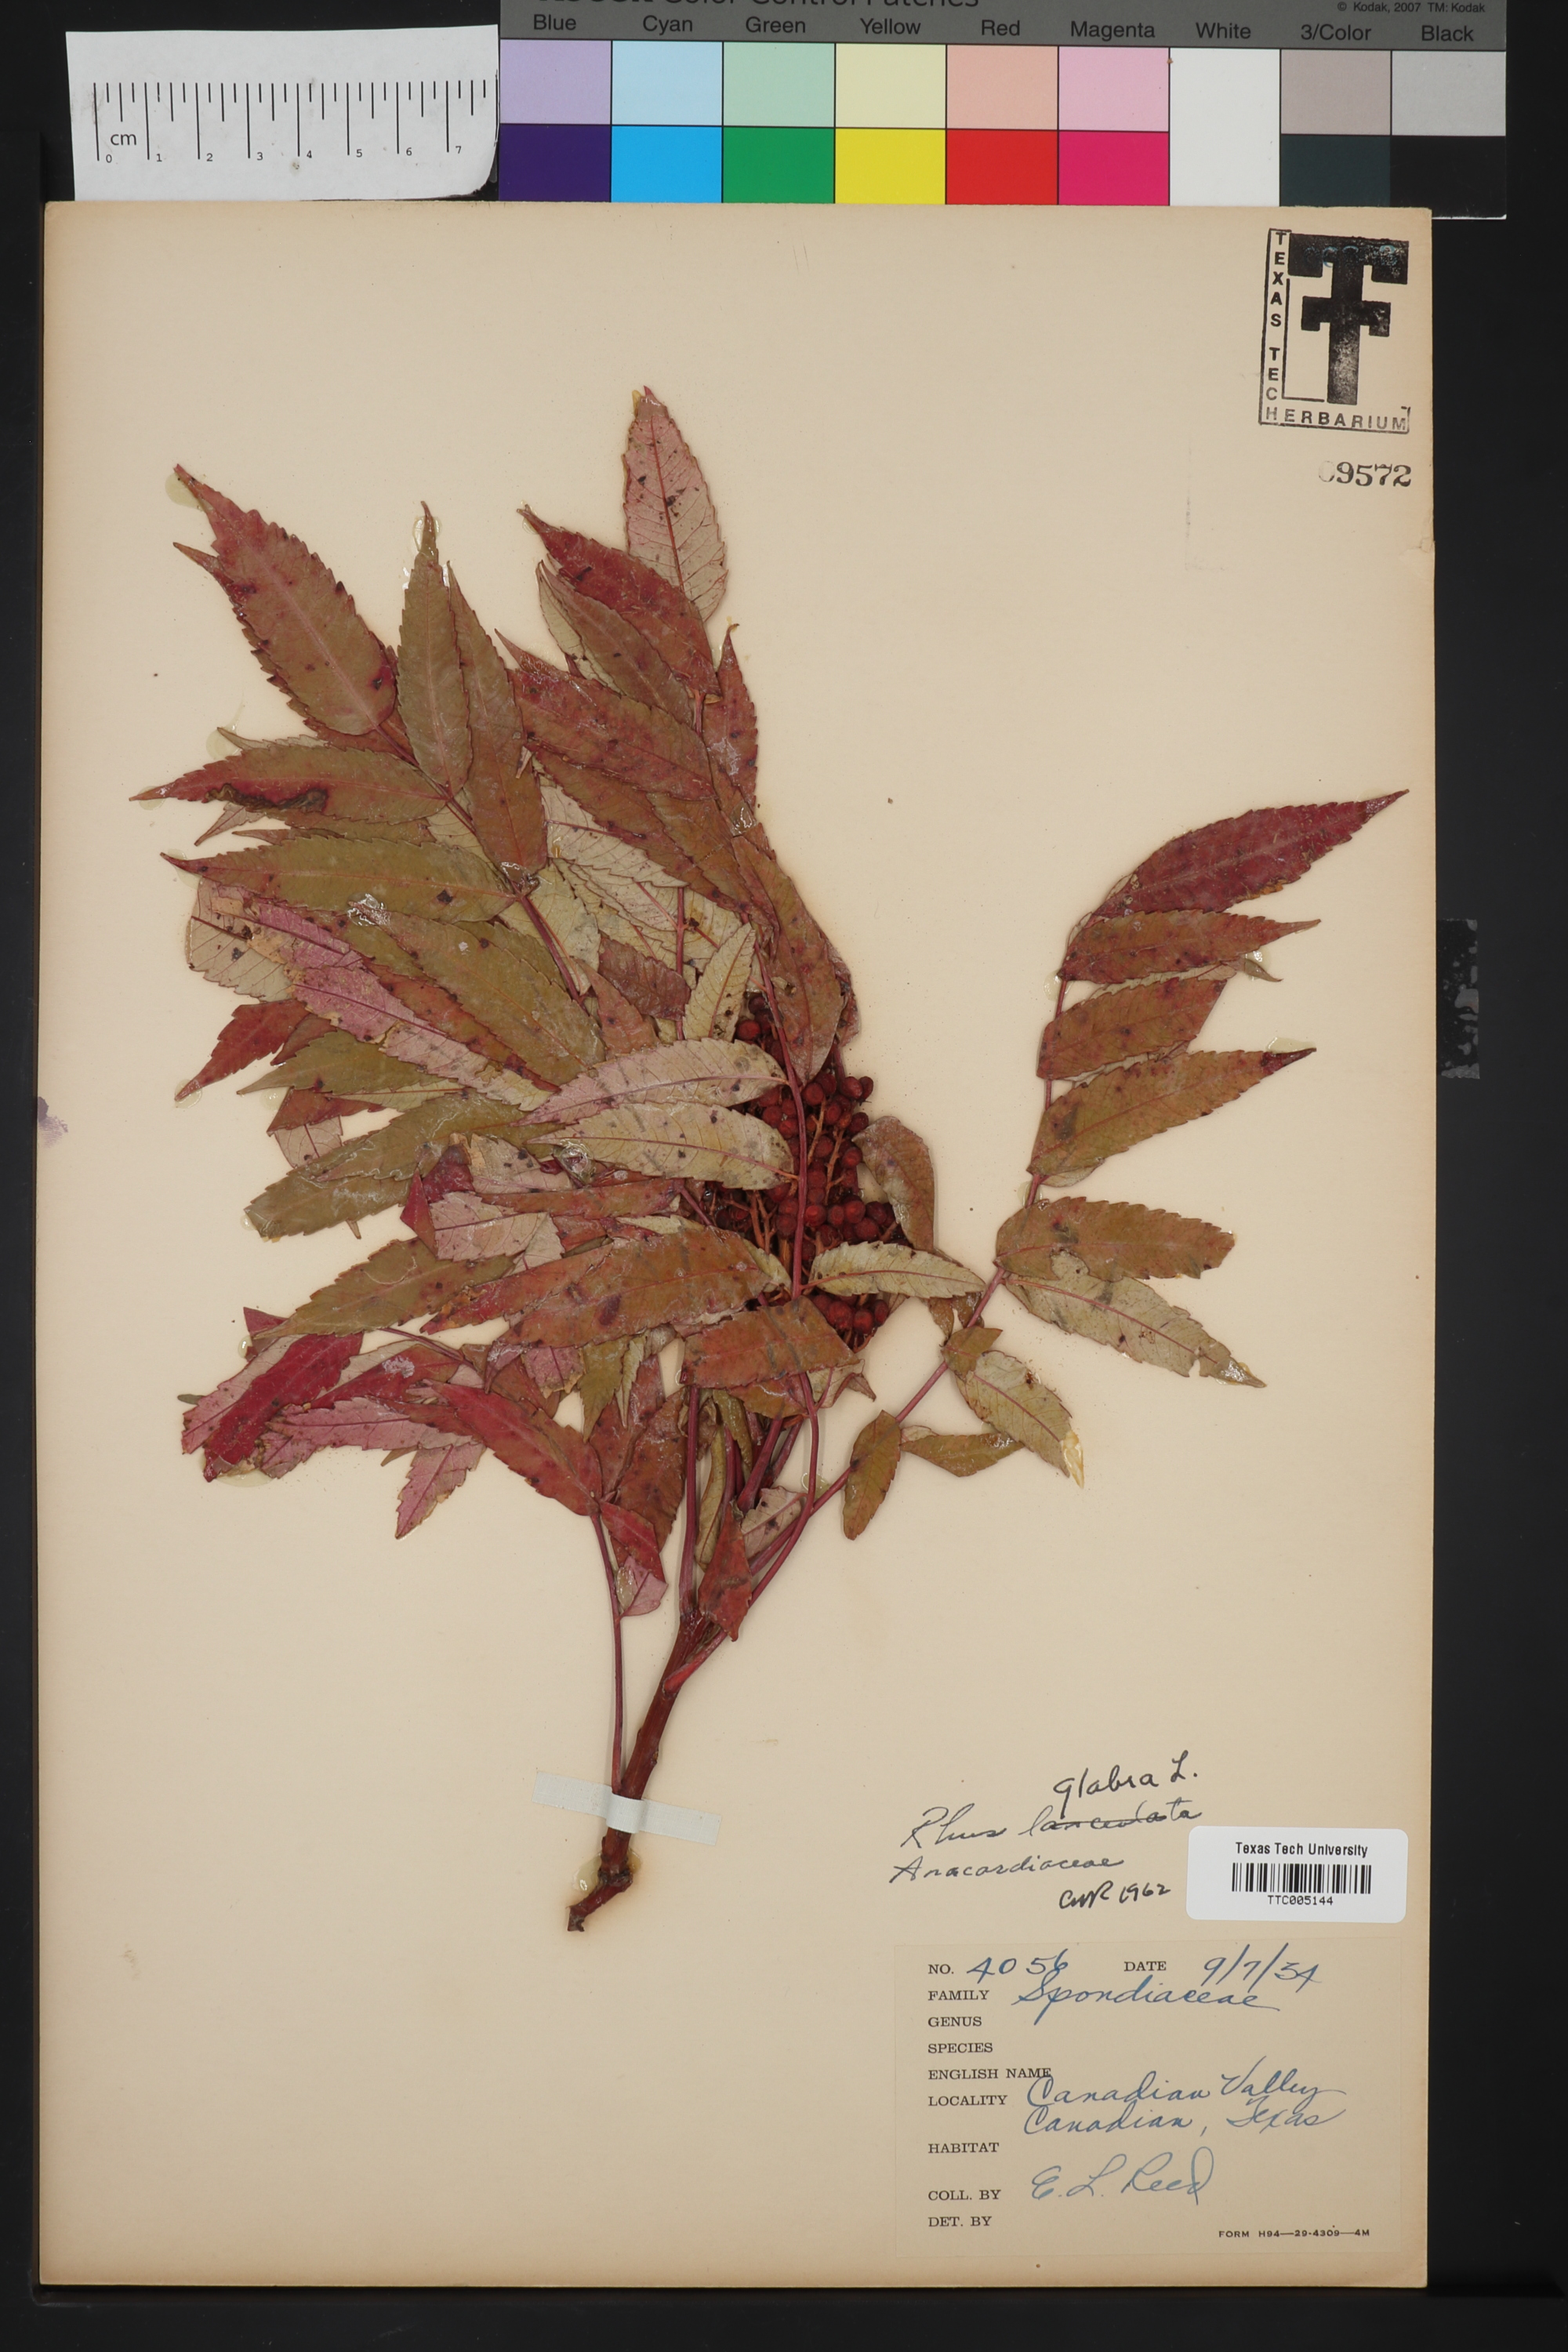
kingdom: Plantae
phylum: Tracheophyta
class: Magnoliopsida
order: Sapindales
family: Anacardiaceae
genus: Rhus
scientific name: Rhus glabra
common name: Scarlet sumac
